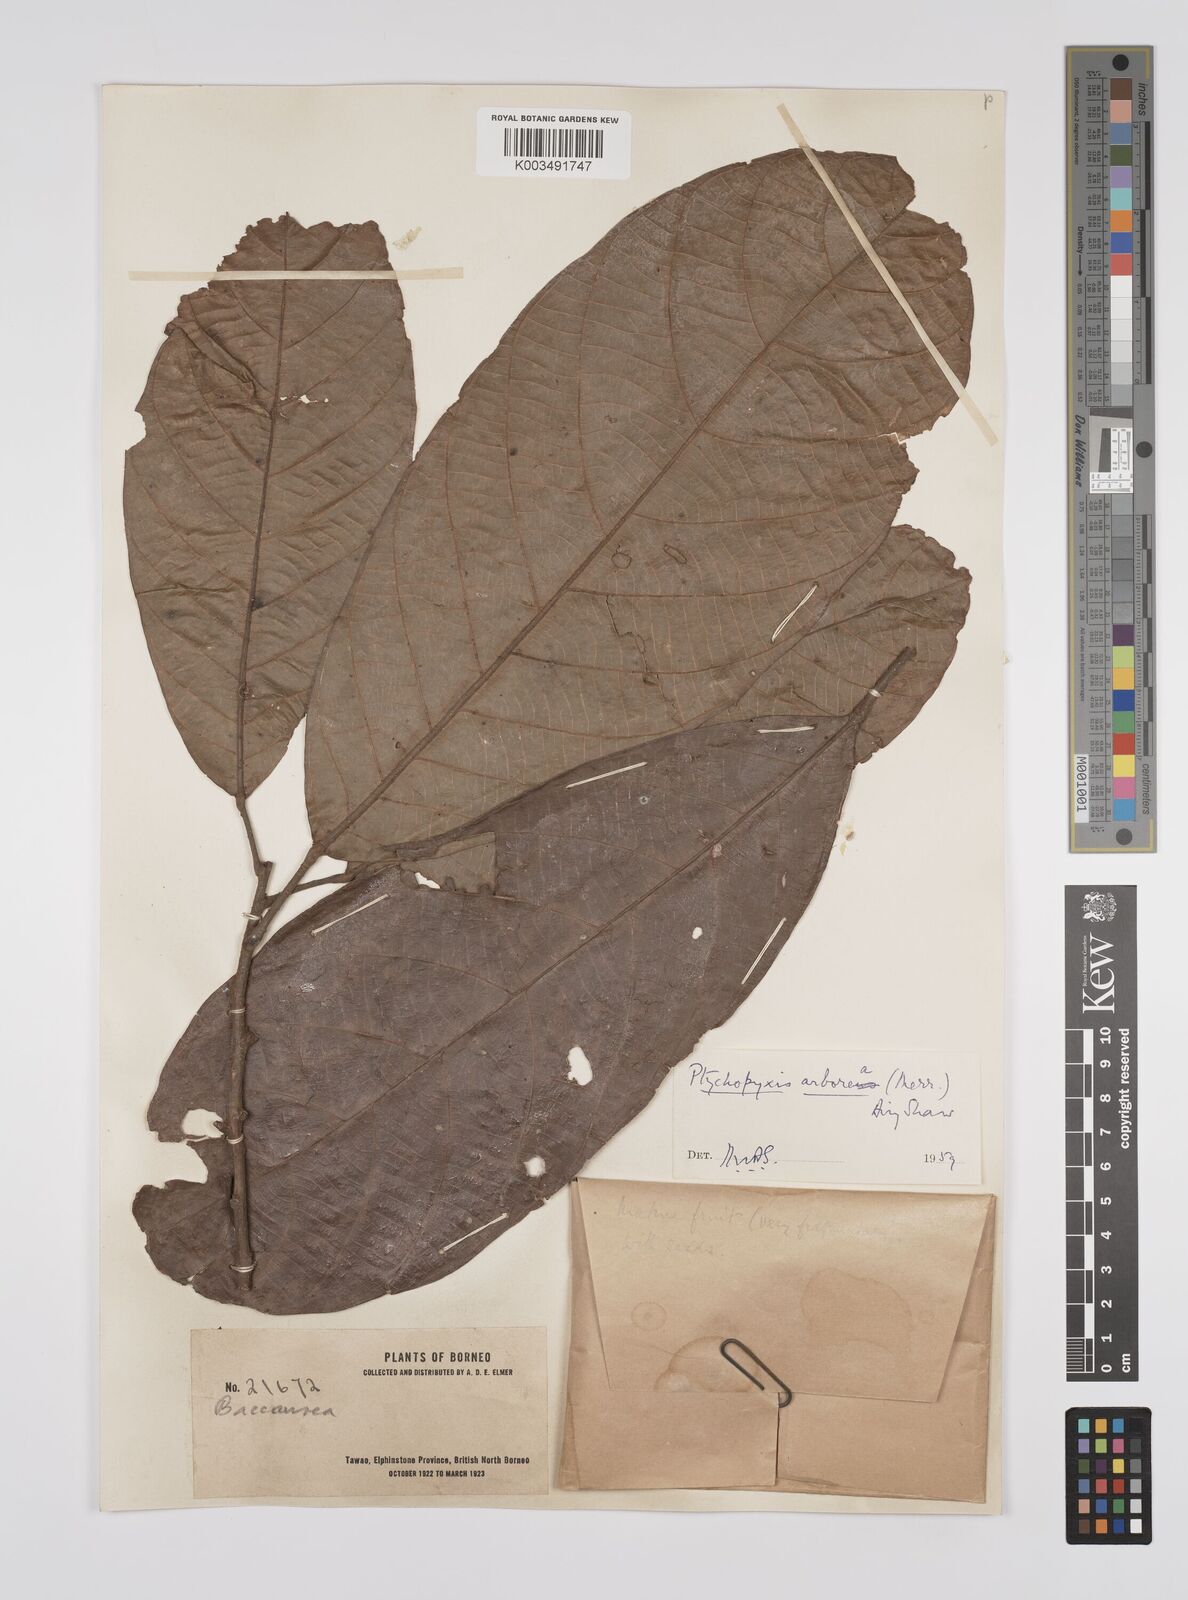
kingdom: Plantae
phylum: Tracheophyta
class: Magnoliopsida
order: Malpighiales
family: Euphorbiaceae
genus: Ptychopyxis
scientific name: Ptychopyxis arborea
